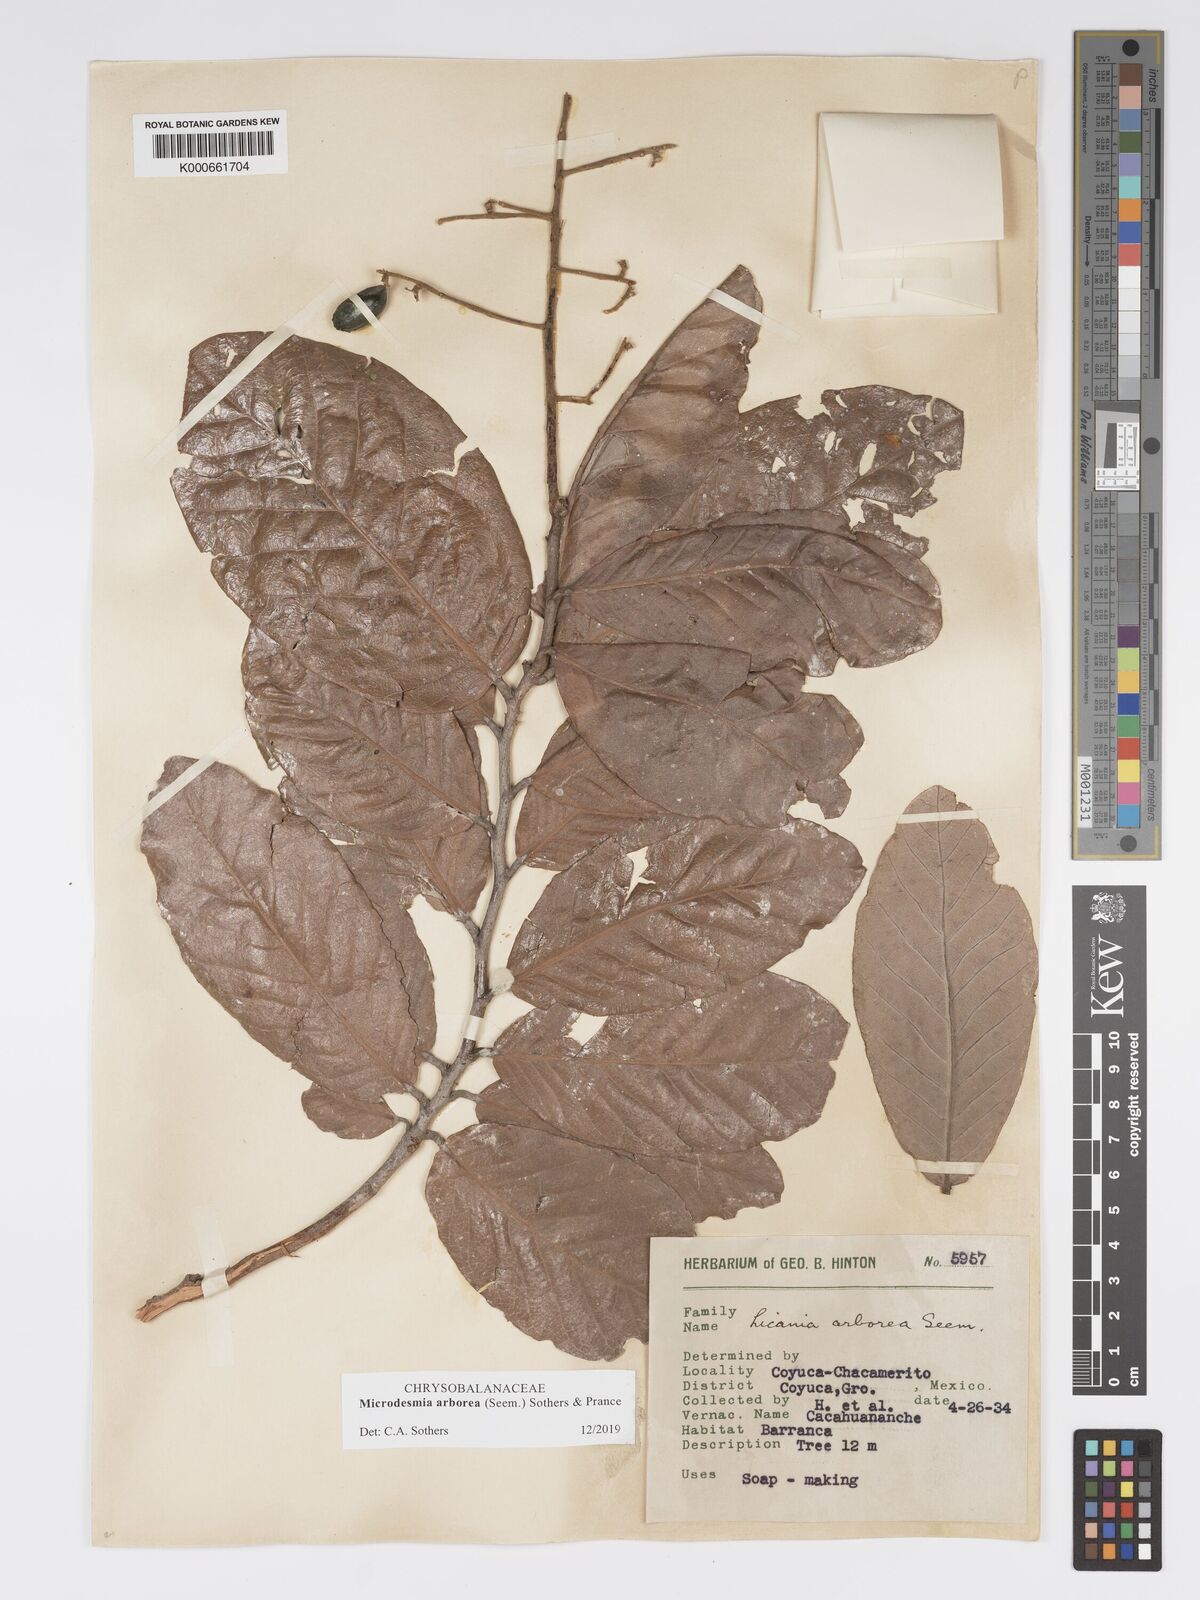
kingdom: Plantae
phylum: Tracheophyta
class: Magnoliopsida
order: Malpighiales
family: Chrysobalanaceae
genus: Licania
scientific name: Licania
